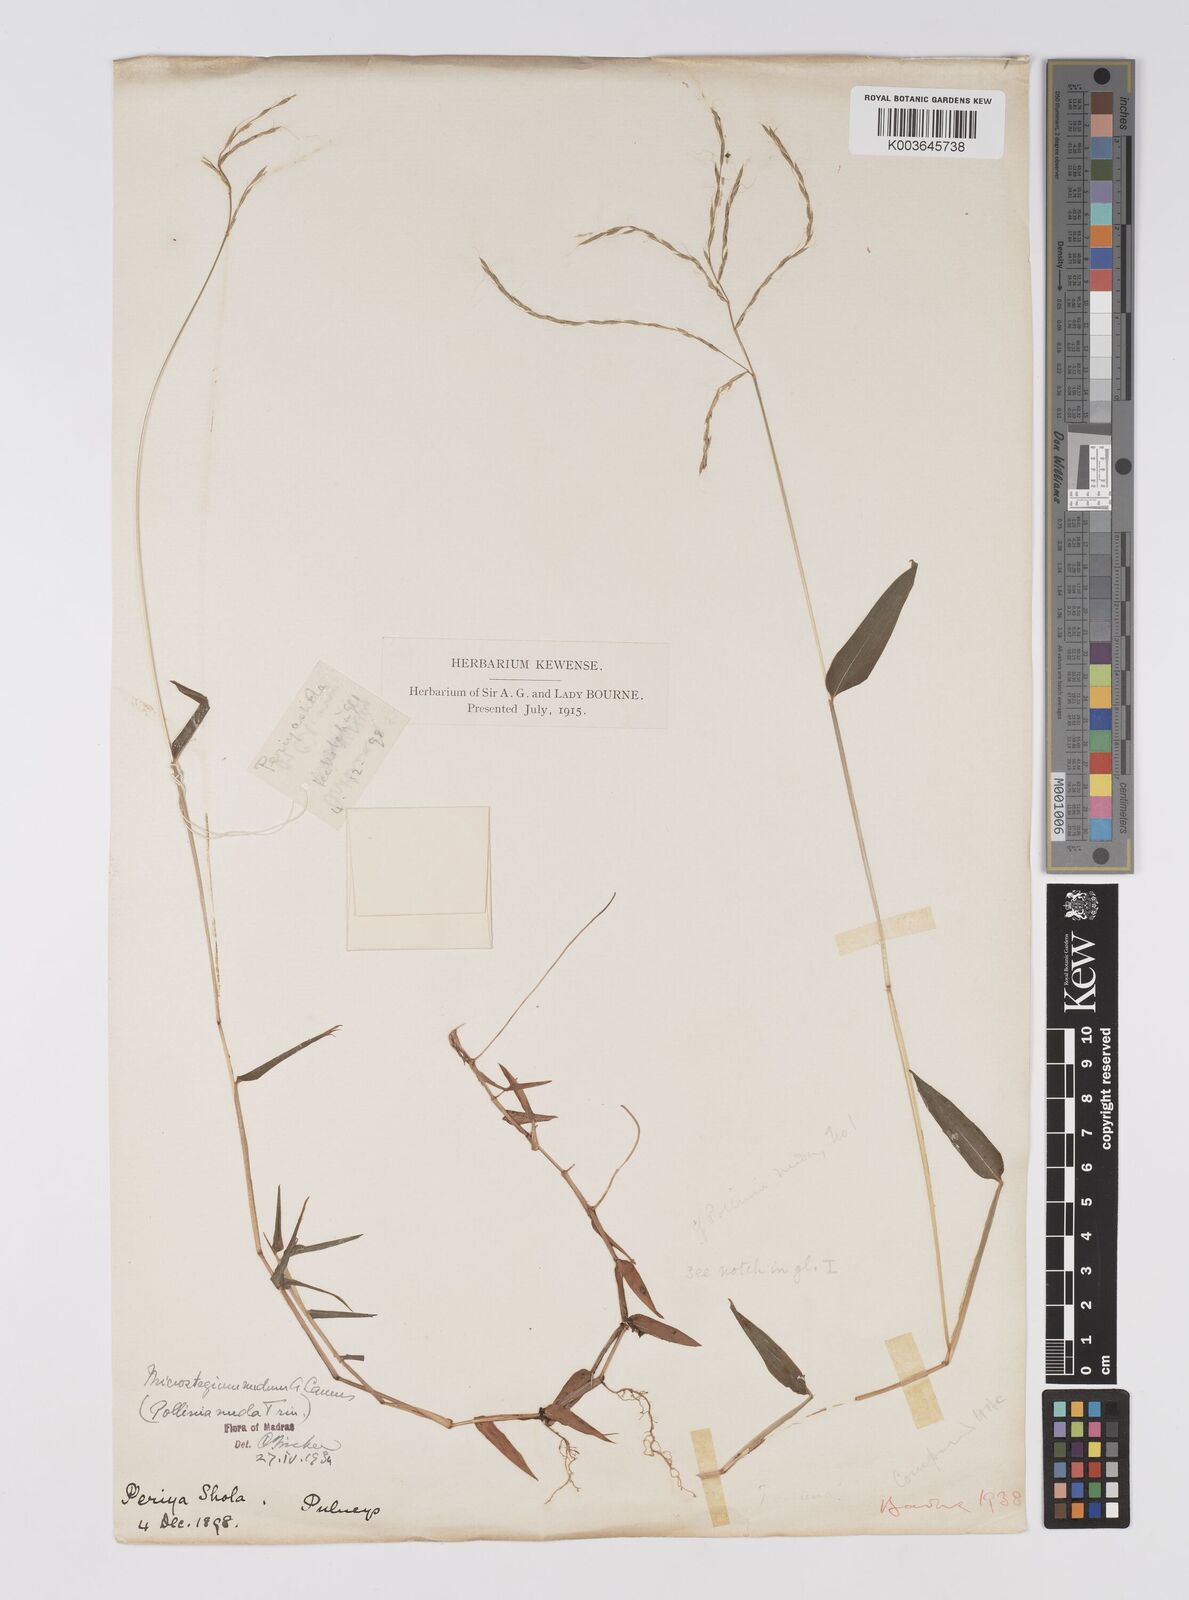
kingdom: Plantae
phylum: Tracheophyta
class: Liliopsida
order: Poales
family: Poaceae
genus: Microstegium
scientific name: Microstegium nudum
